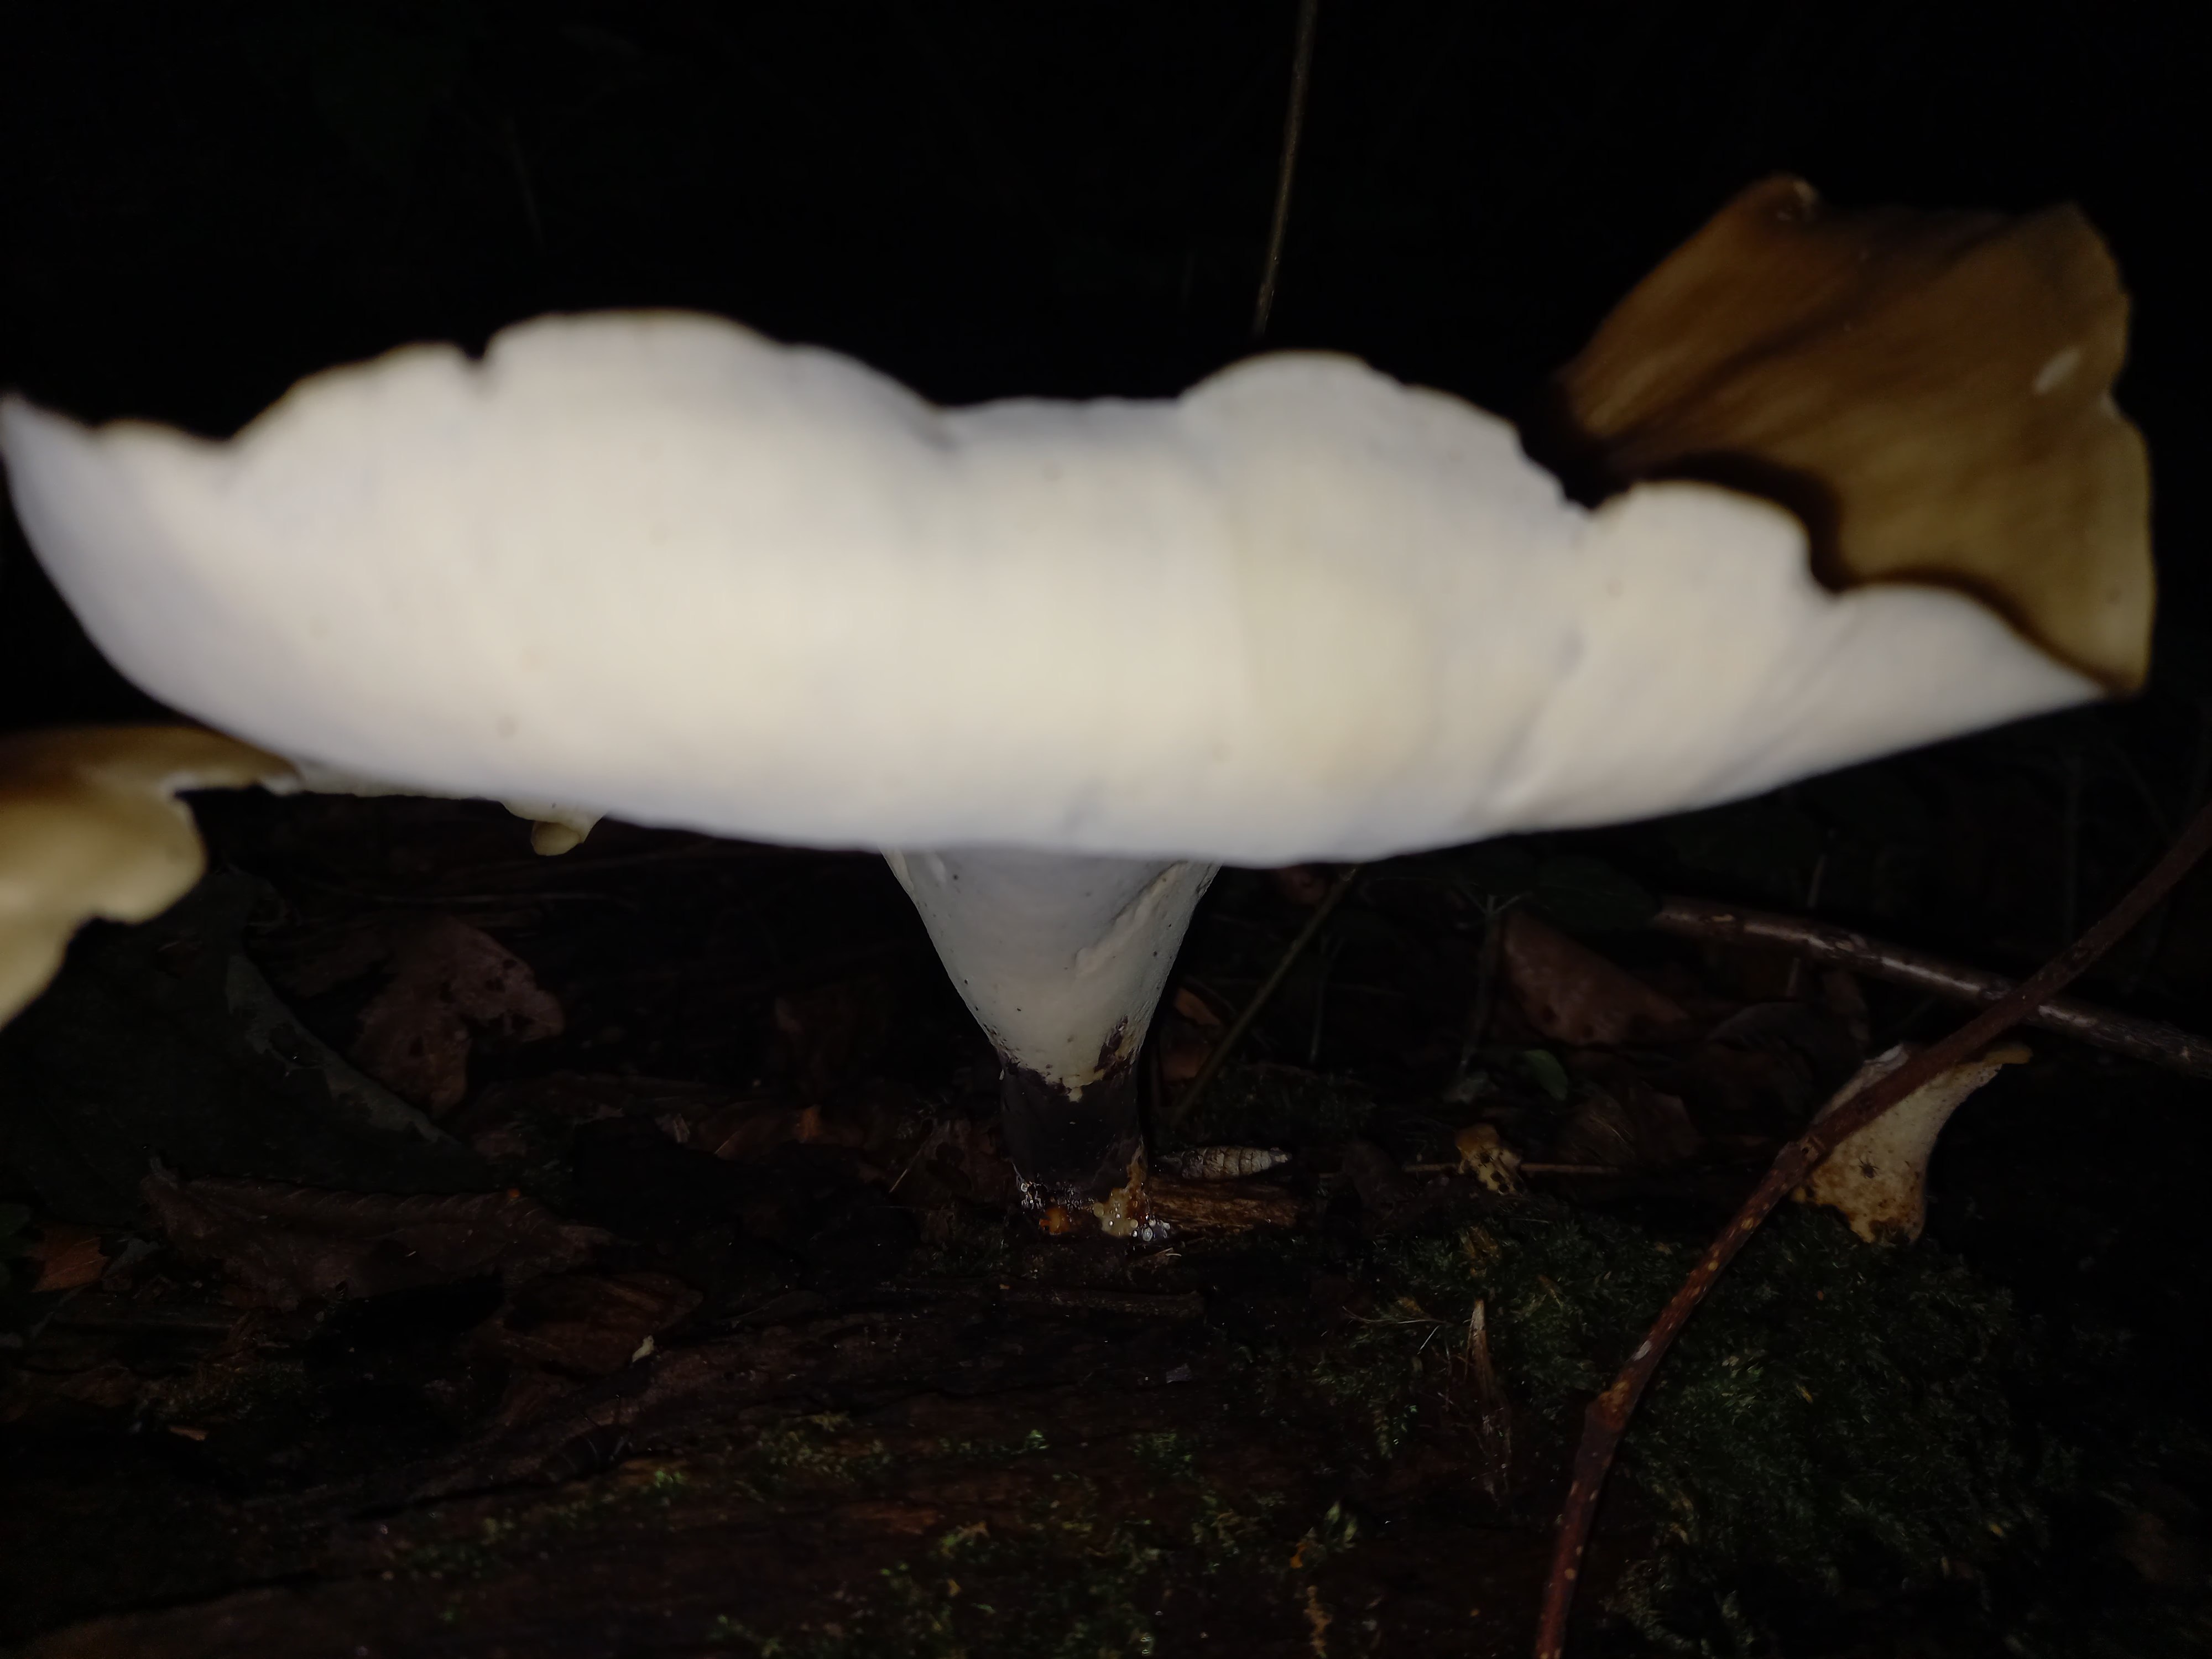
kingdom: Fungi
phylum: Basidiomycota
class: Agaricomycetes
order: Polyporales
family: Polyporaceae
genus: Picipes
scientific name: Picipes badius
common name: kastaniebrun stilkporesvamp
